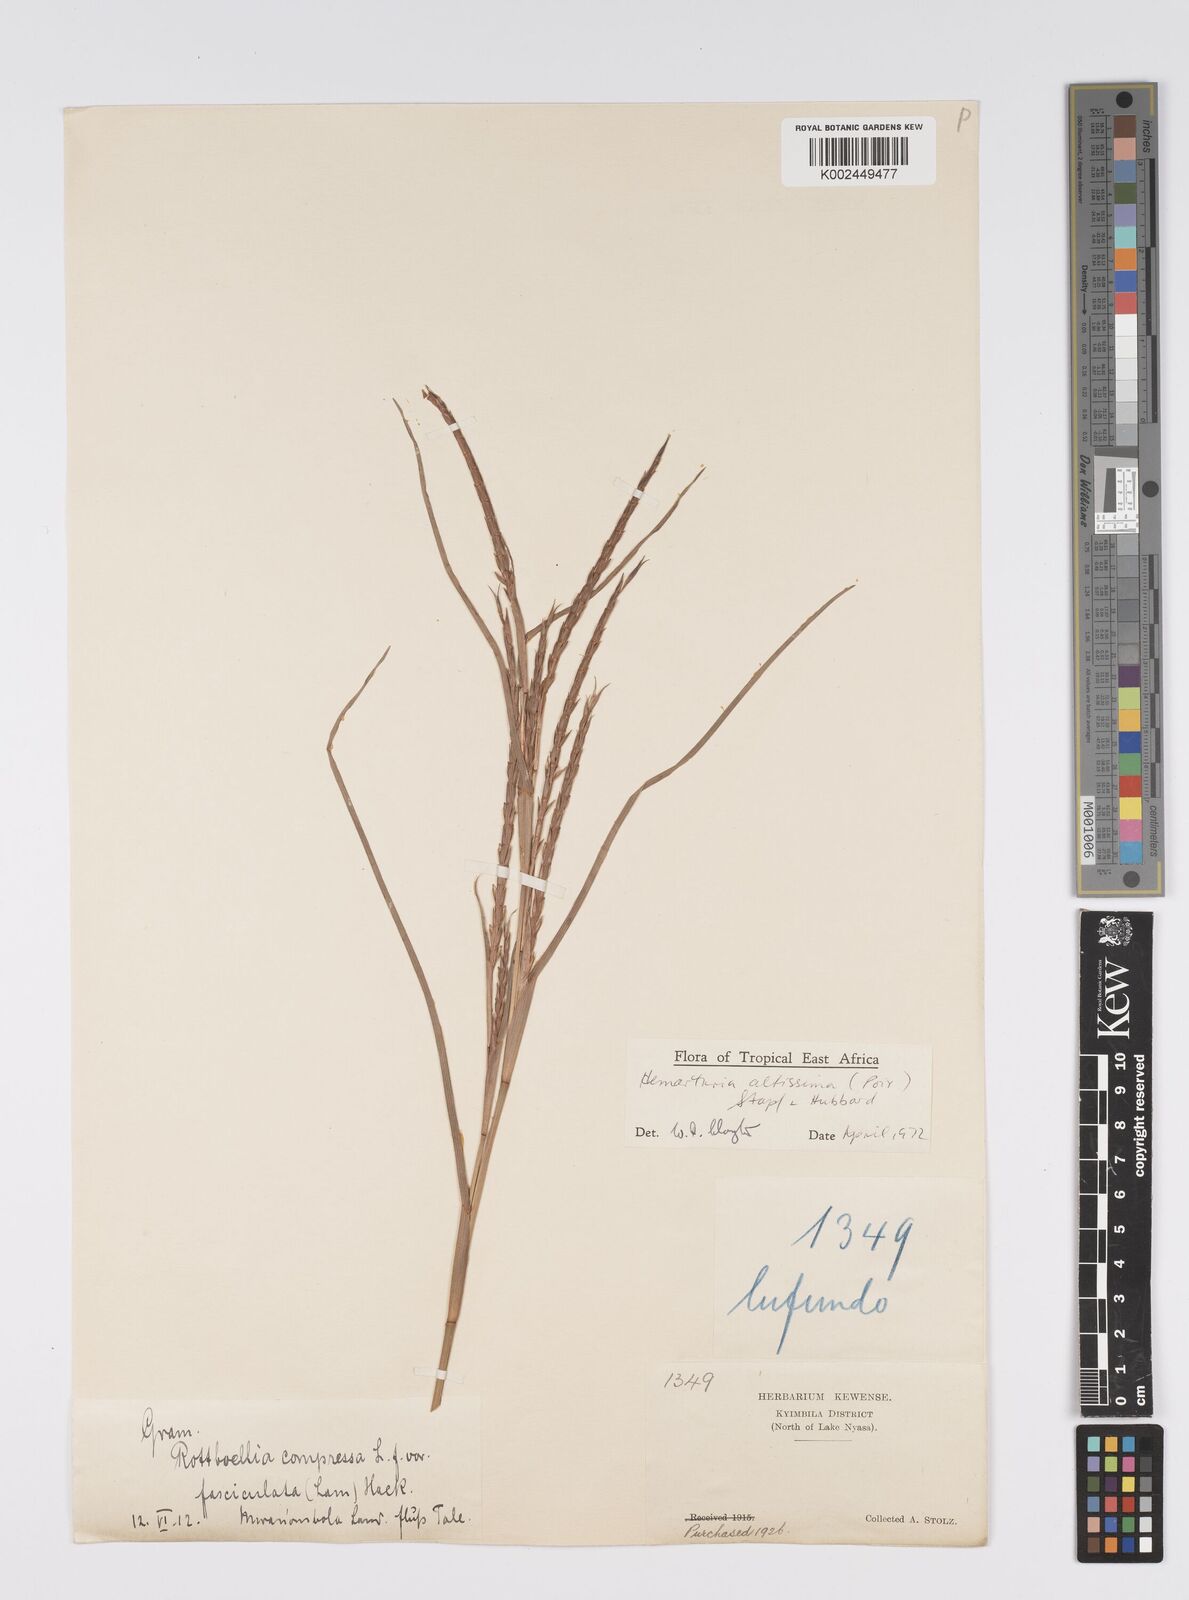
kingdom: Plantae
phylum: Tracheophyta
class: Liliopsida
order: Poales
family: Poaceae
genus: Hemarthria
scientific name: Hemarthria altissima
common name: African jointgrass
